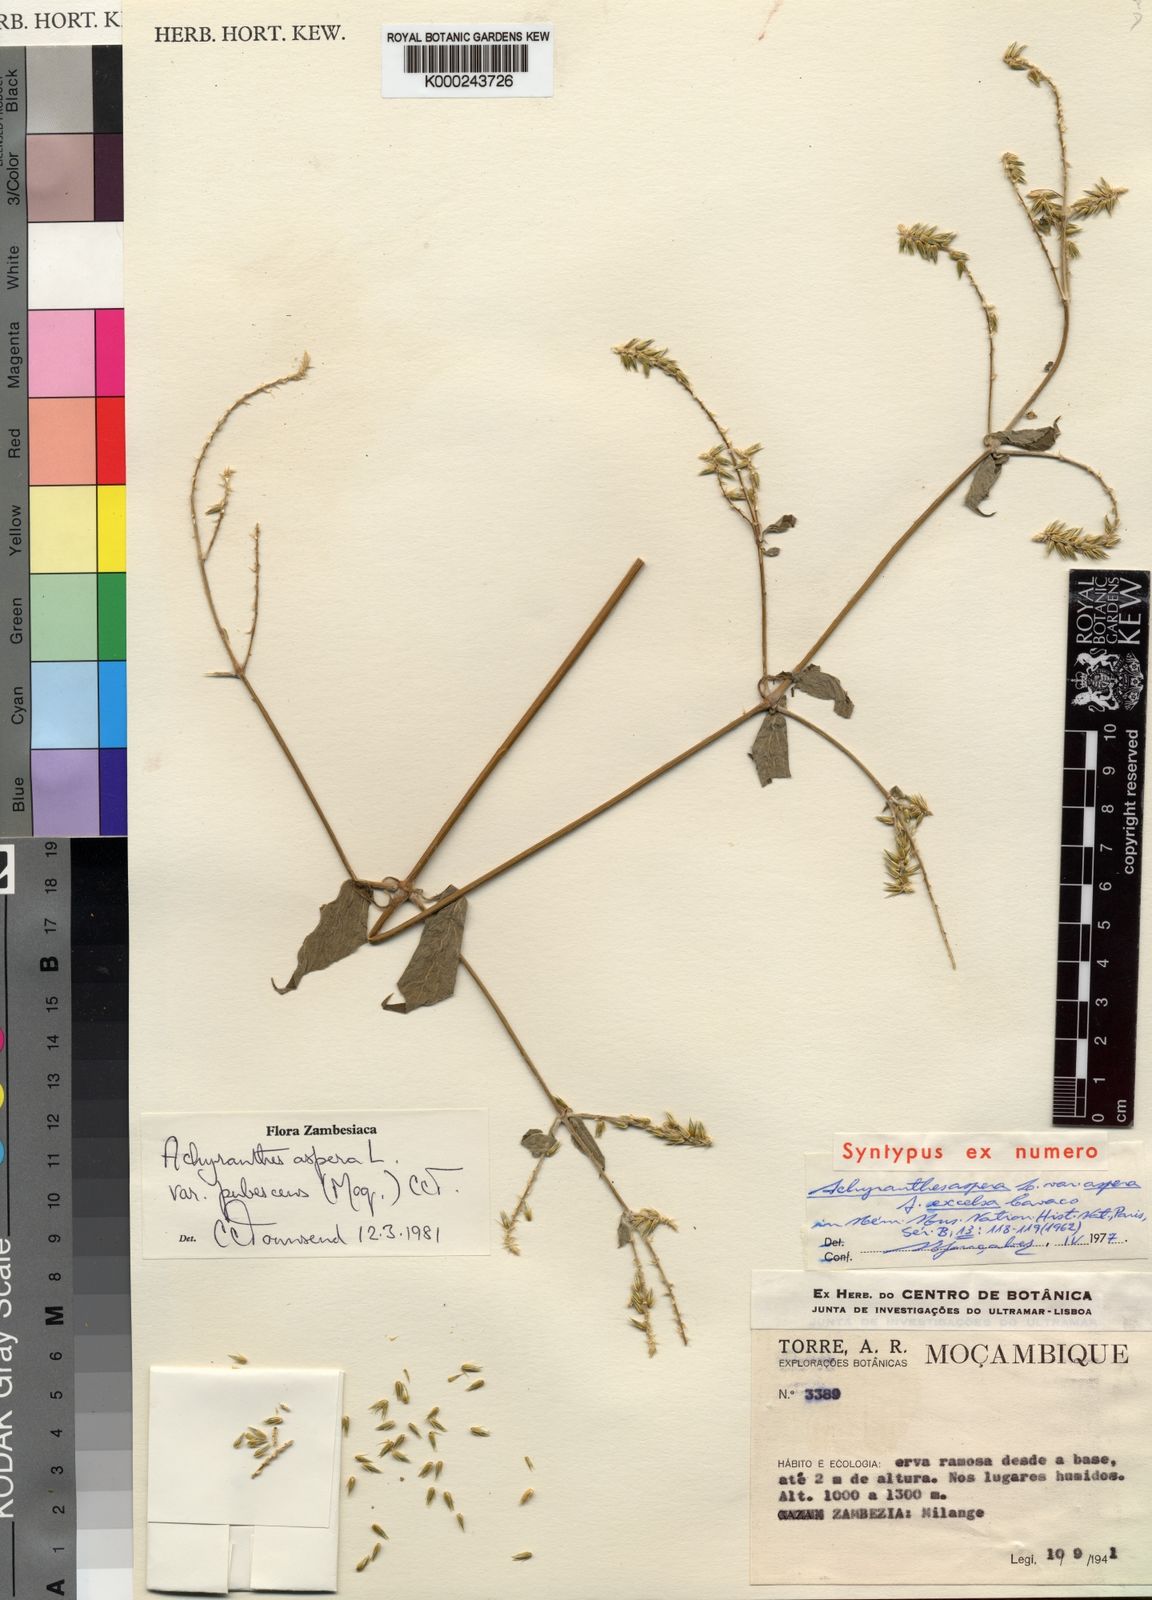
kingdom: Plantae
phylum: Tracheophyta
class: Magnoliopsida
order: Caryophyllales
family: Amaranthaceae
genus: Achyranthes
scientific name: Achyranthes aspera
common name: Devil's horsewhip
